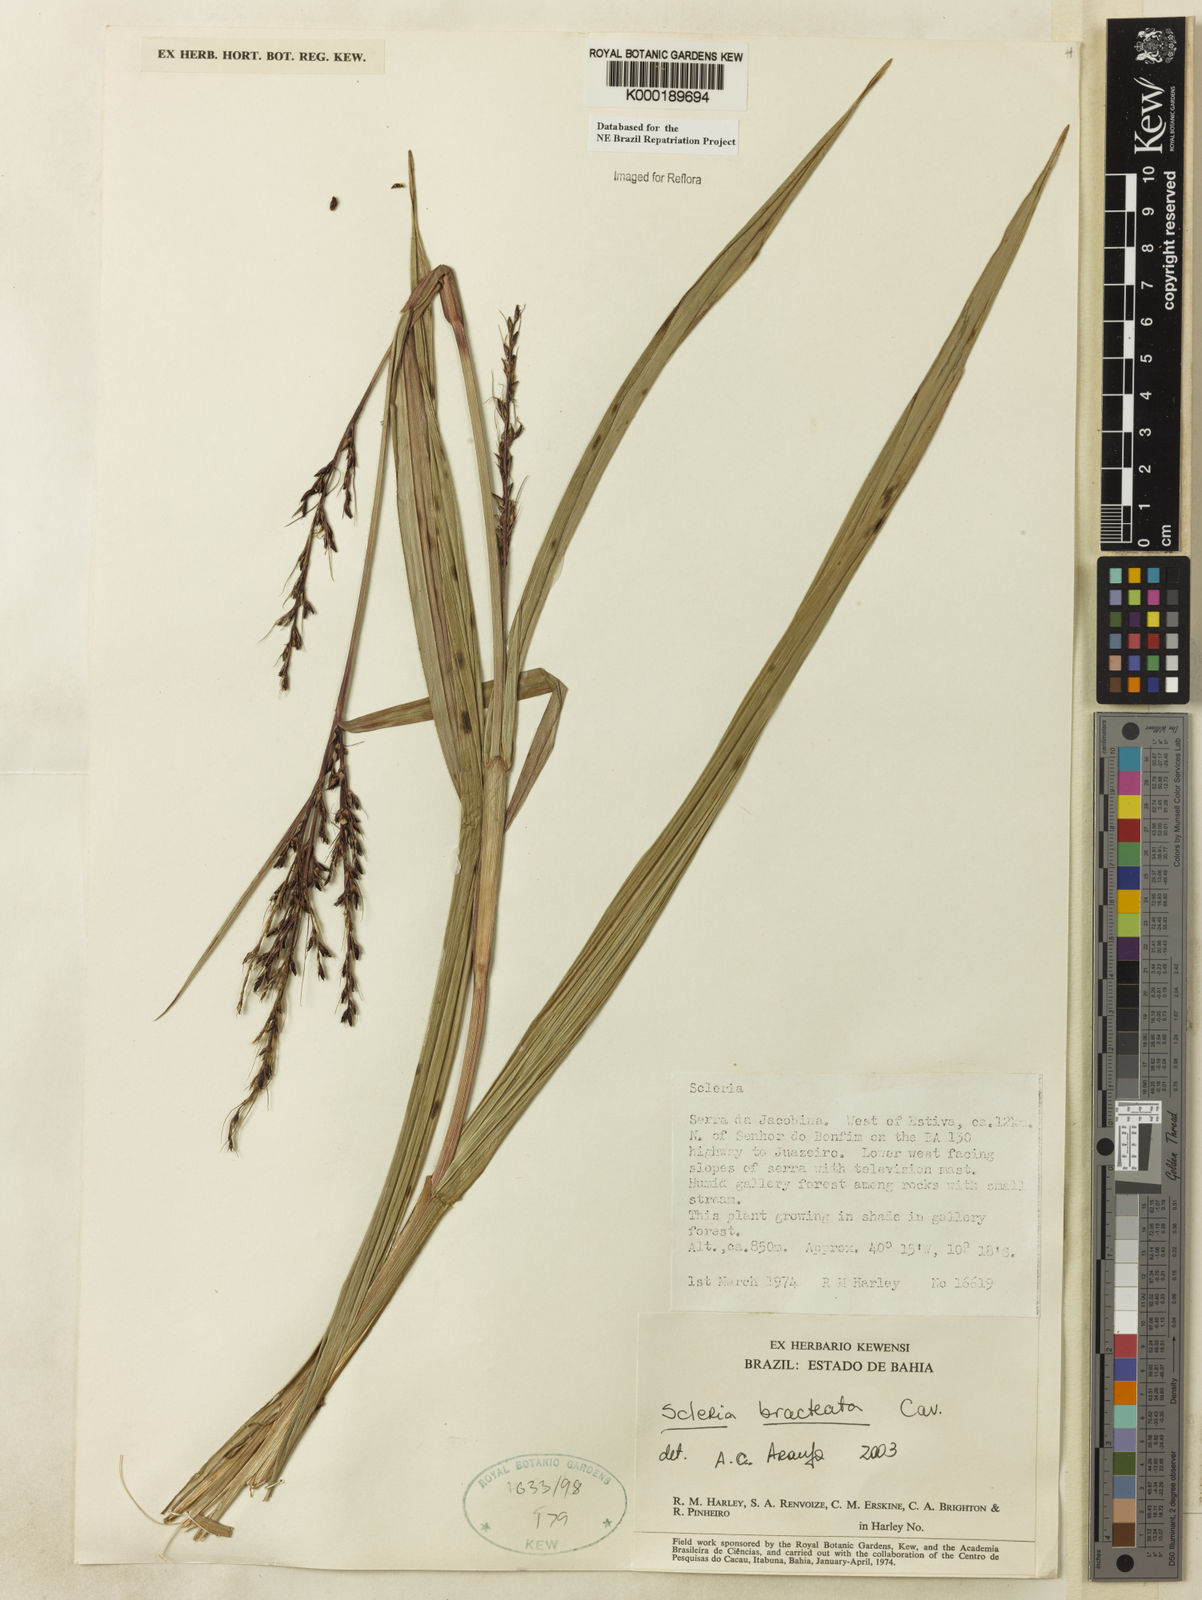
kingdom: Plantae
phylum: Tracheophyta
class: Liliopsida
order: Poales
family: Cyperaceae
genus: Scleria
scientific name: Scleria bracteata
